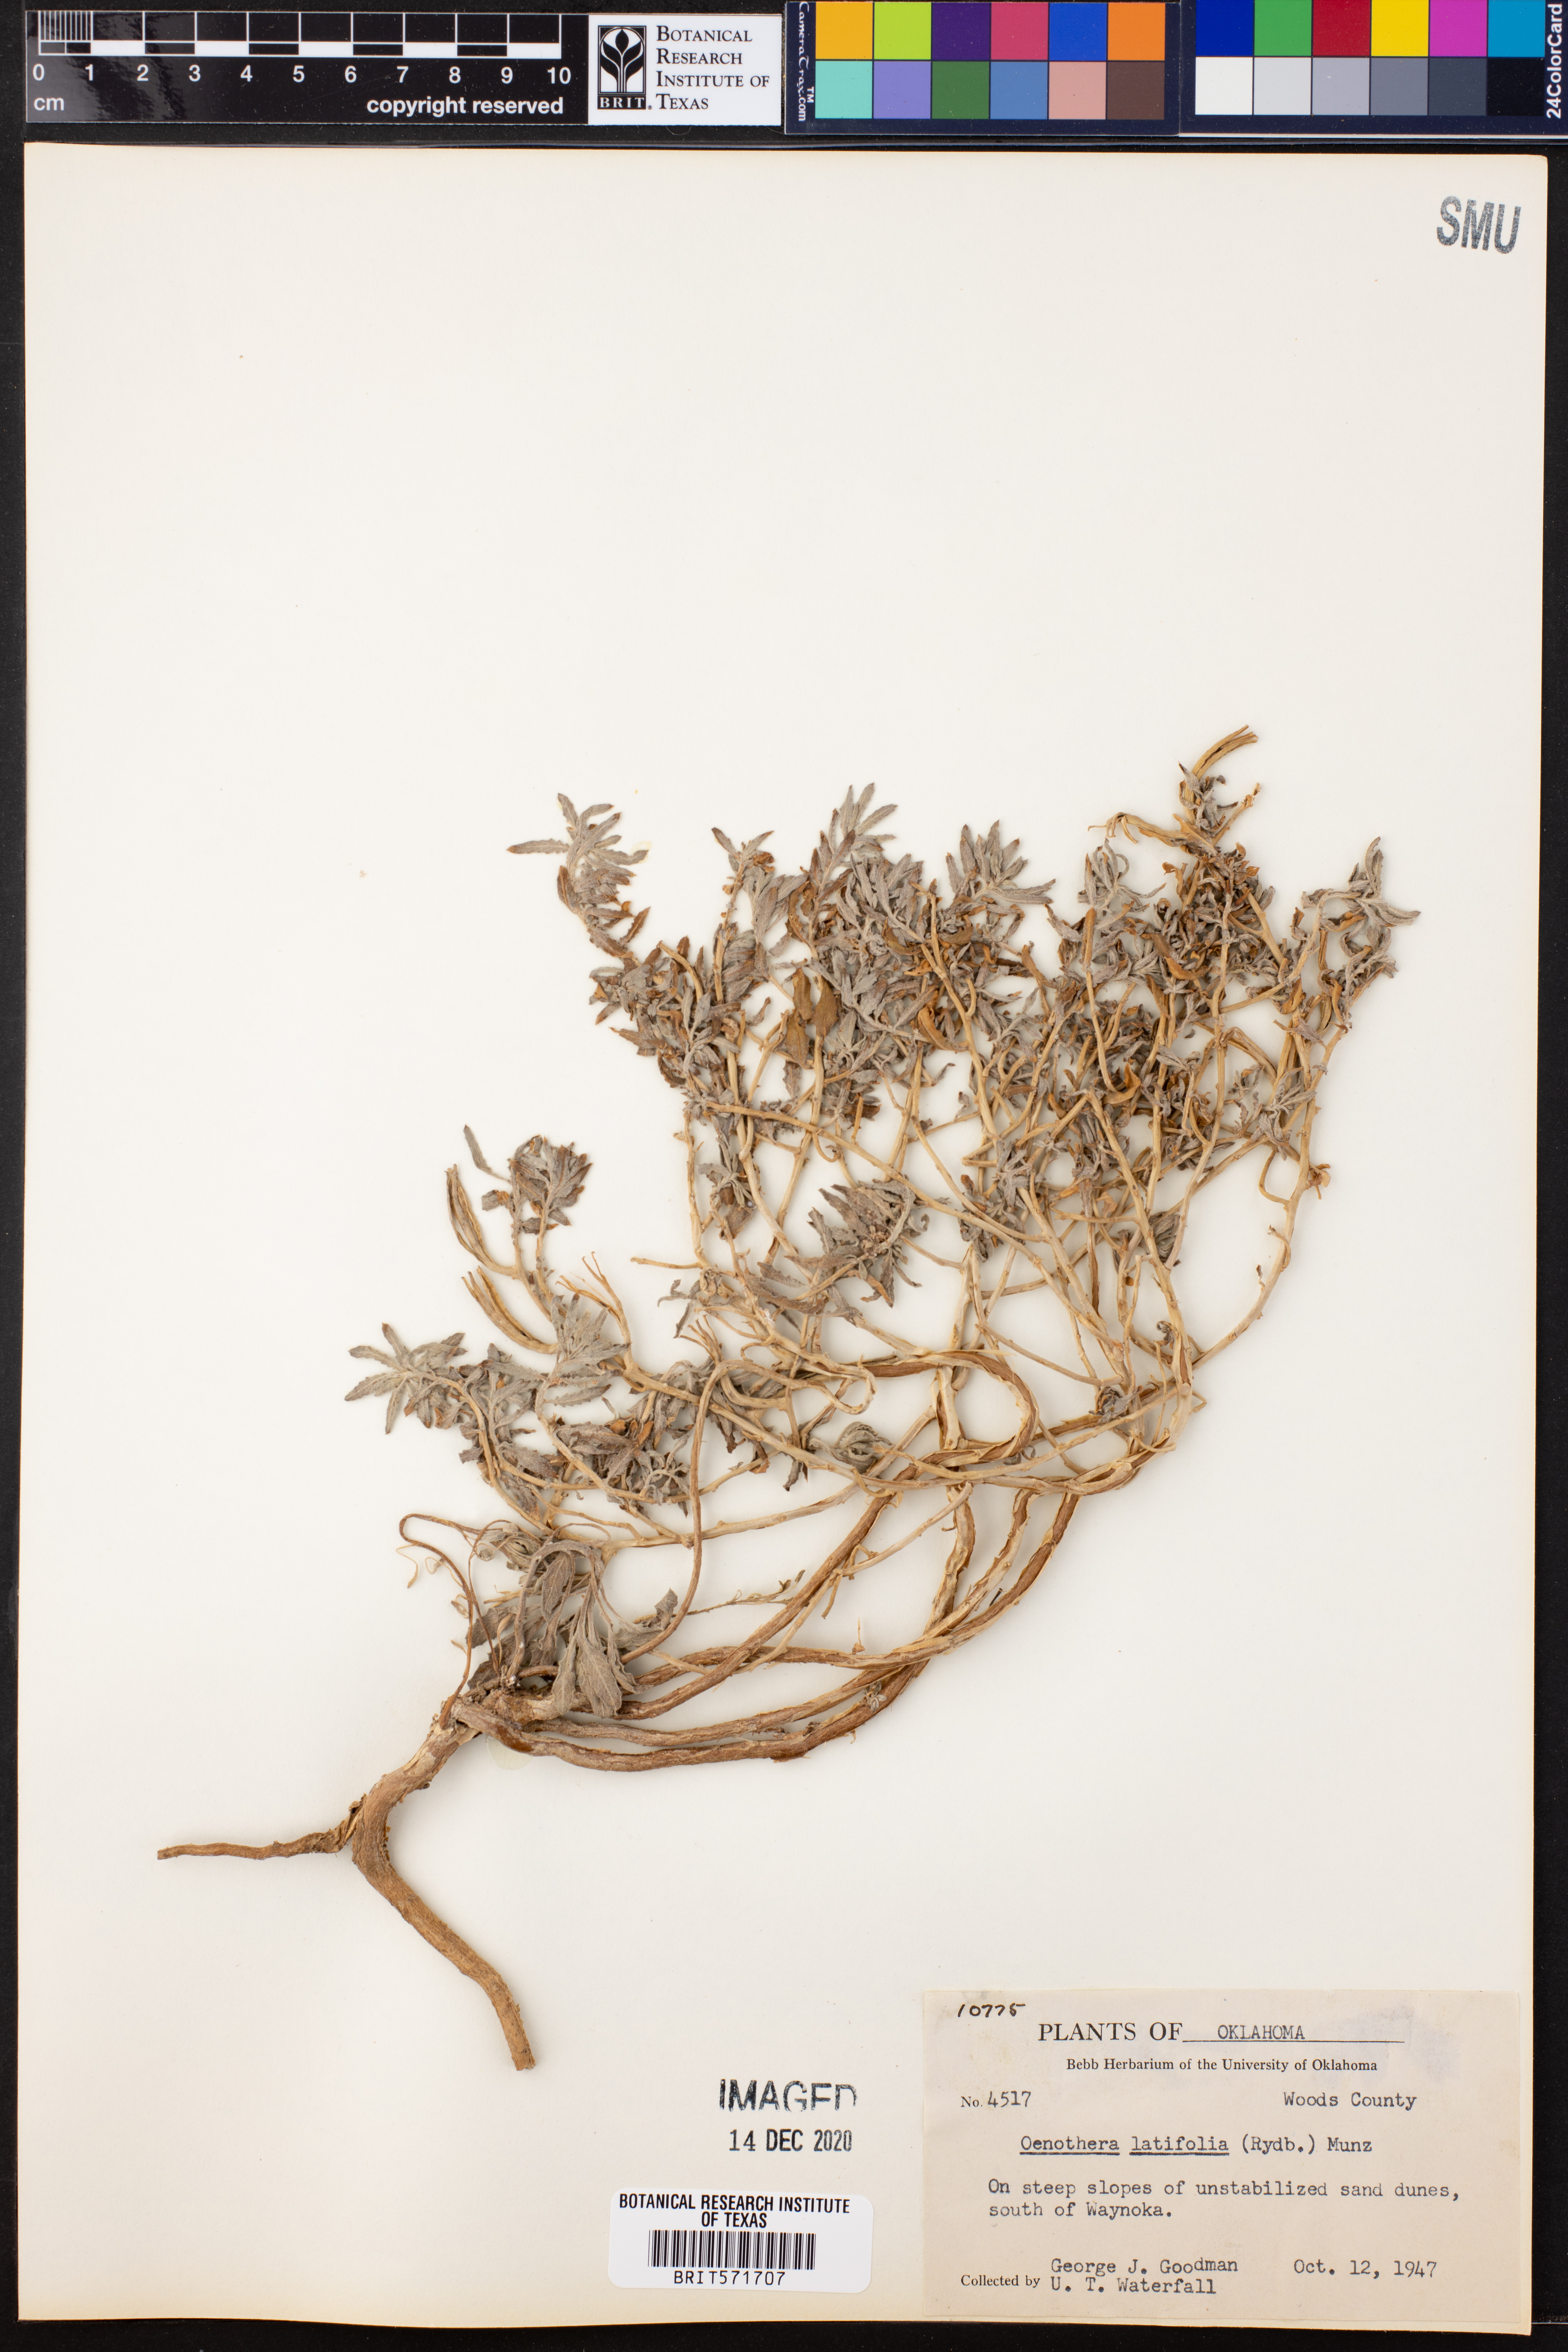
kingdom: Plantae
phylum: Tracheophyta
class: Magnoliopsida
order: Myrtales
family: Onagraceae
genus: Oenothera
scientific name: Oenothera latifolia
